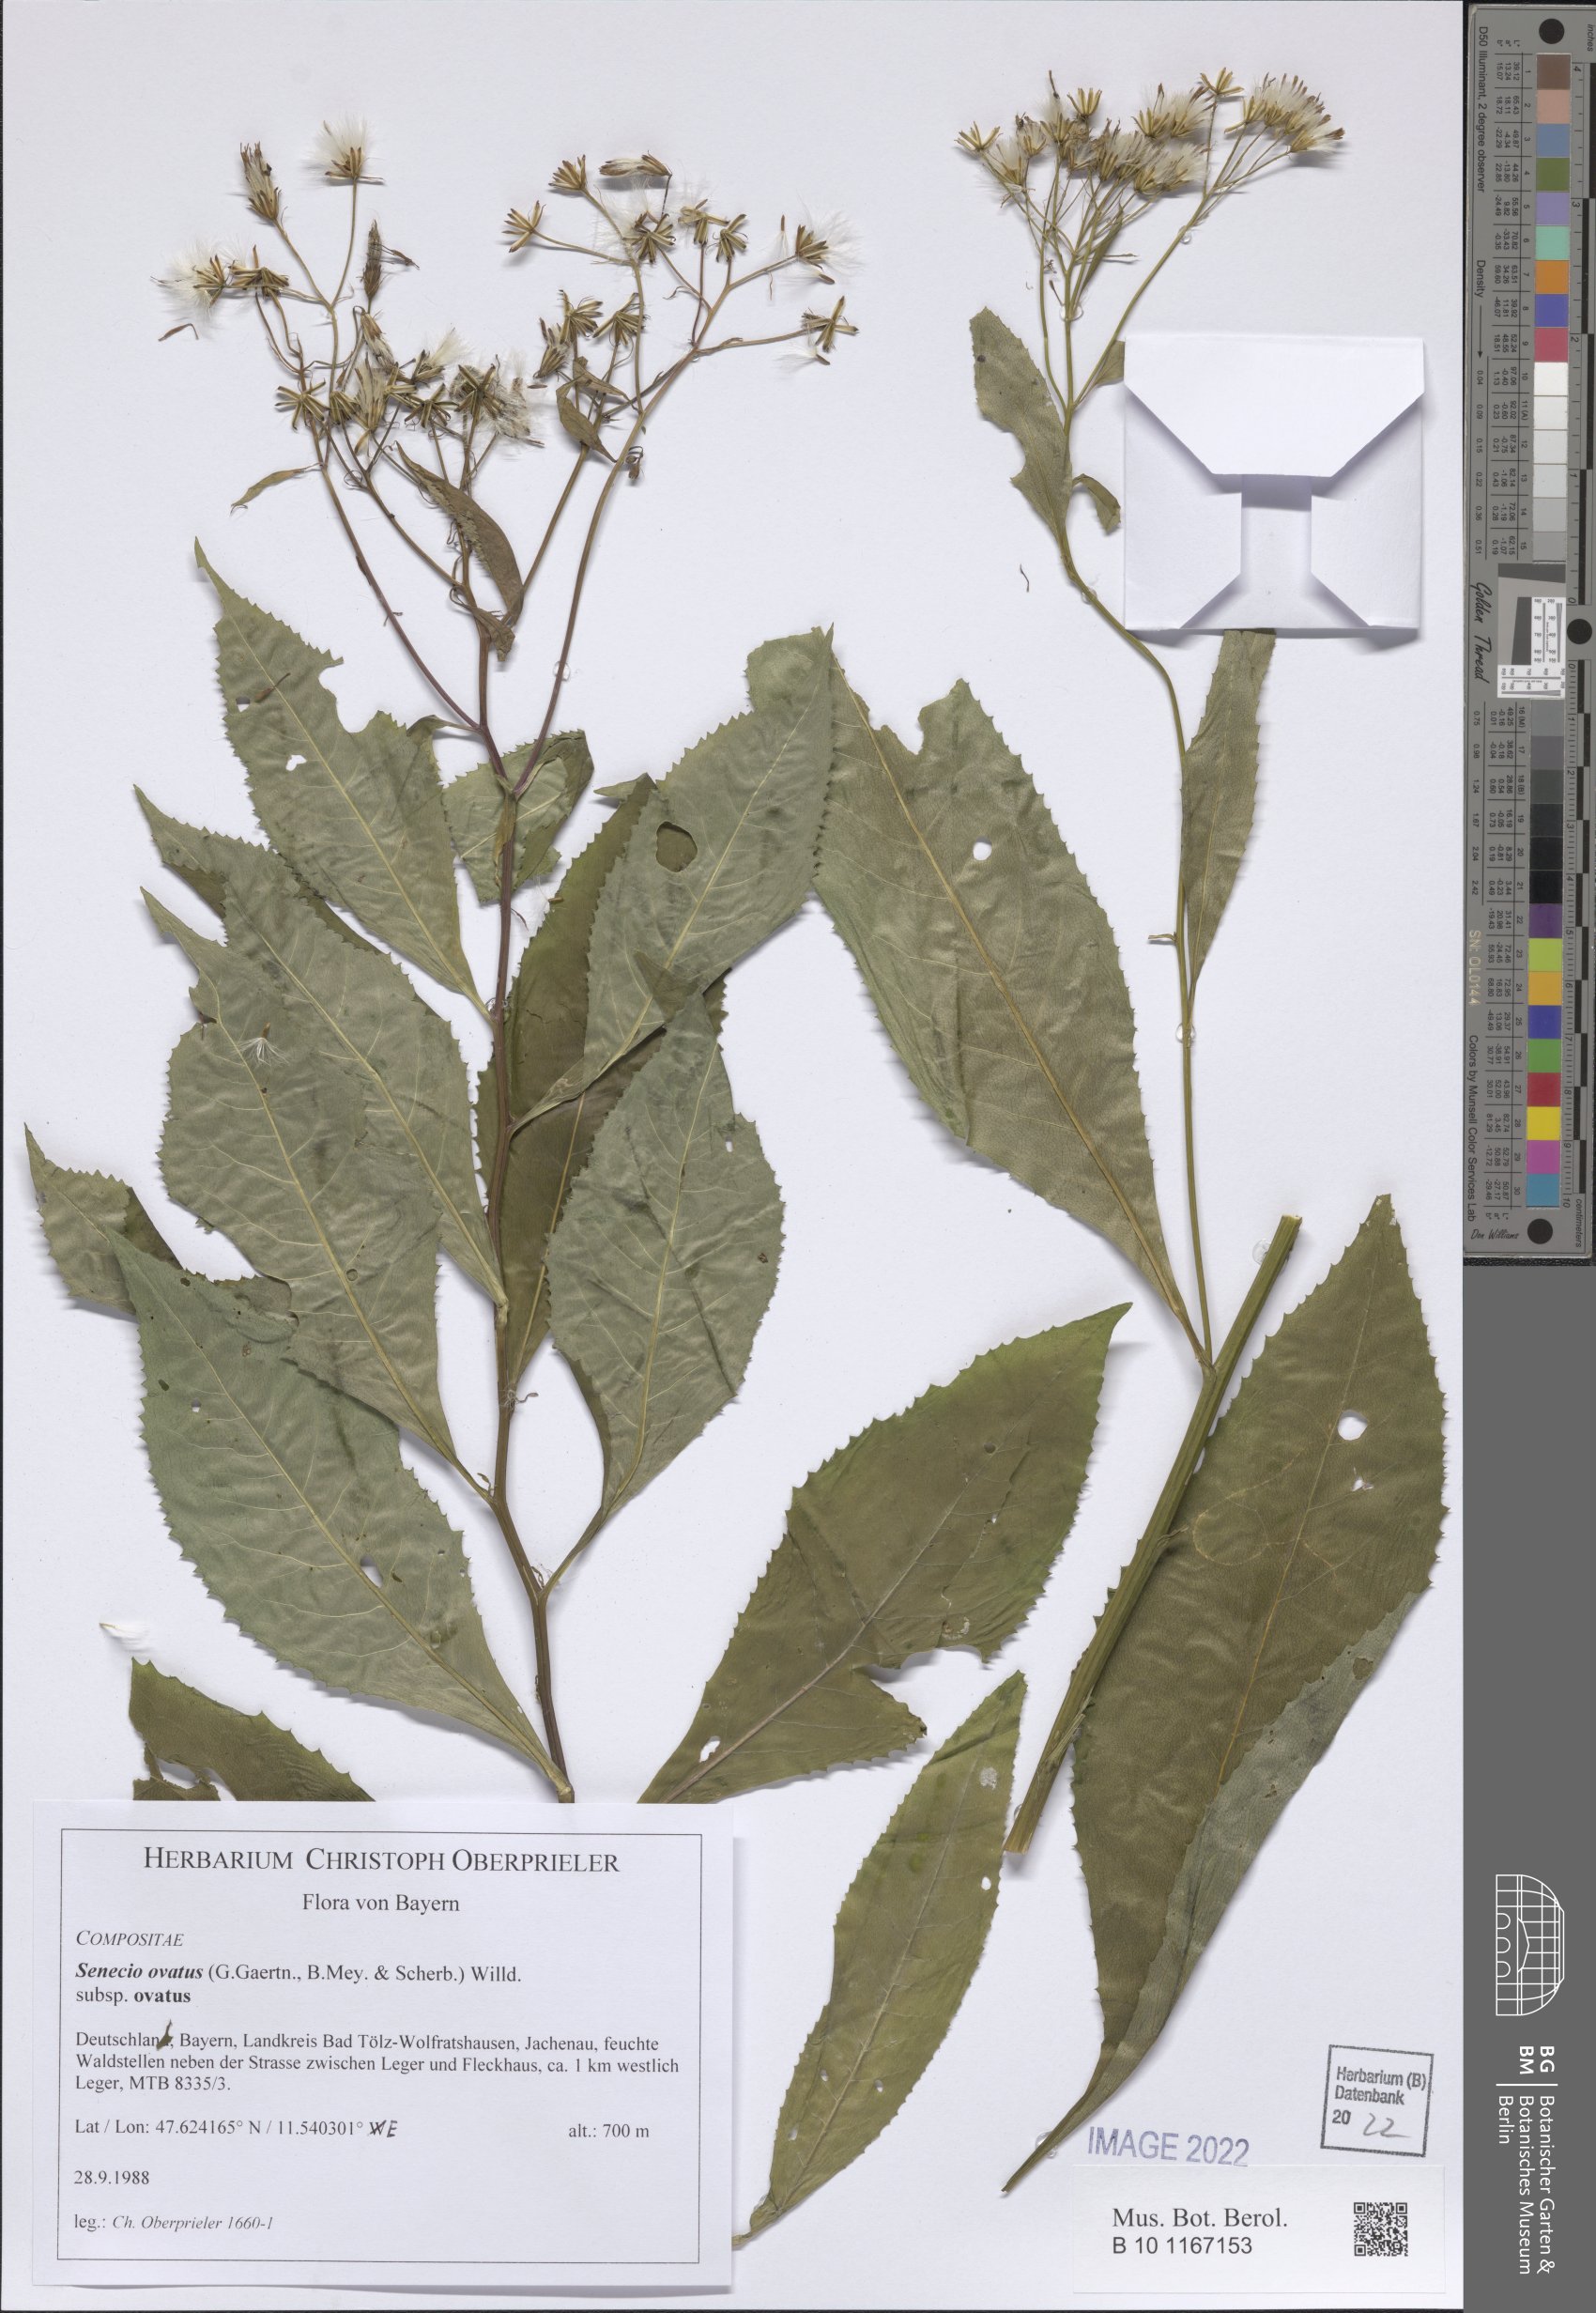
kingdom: Plantae
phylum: Tracheophyta
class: Magnoliopsida
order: Asterales
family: Asteraceae
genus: Senecio
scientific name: Senecio ovatus
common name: Wood ragwort
